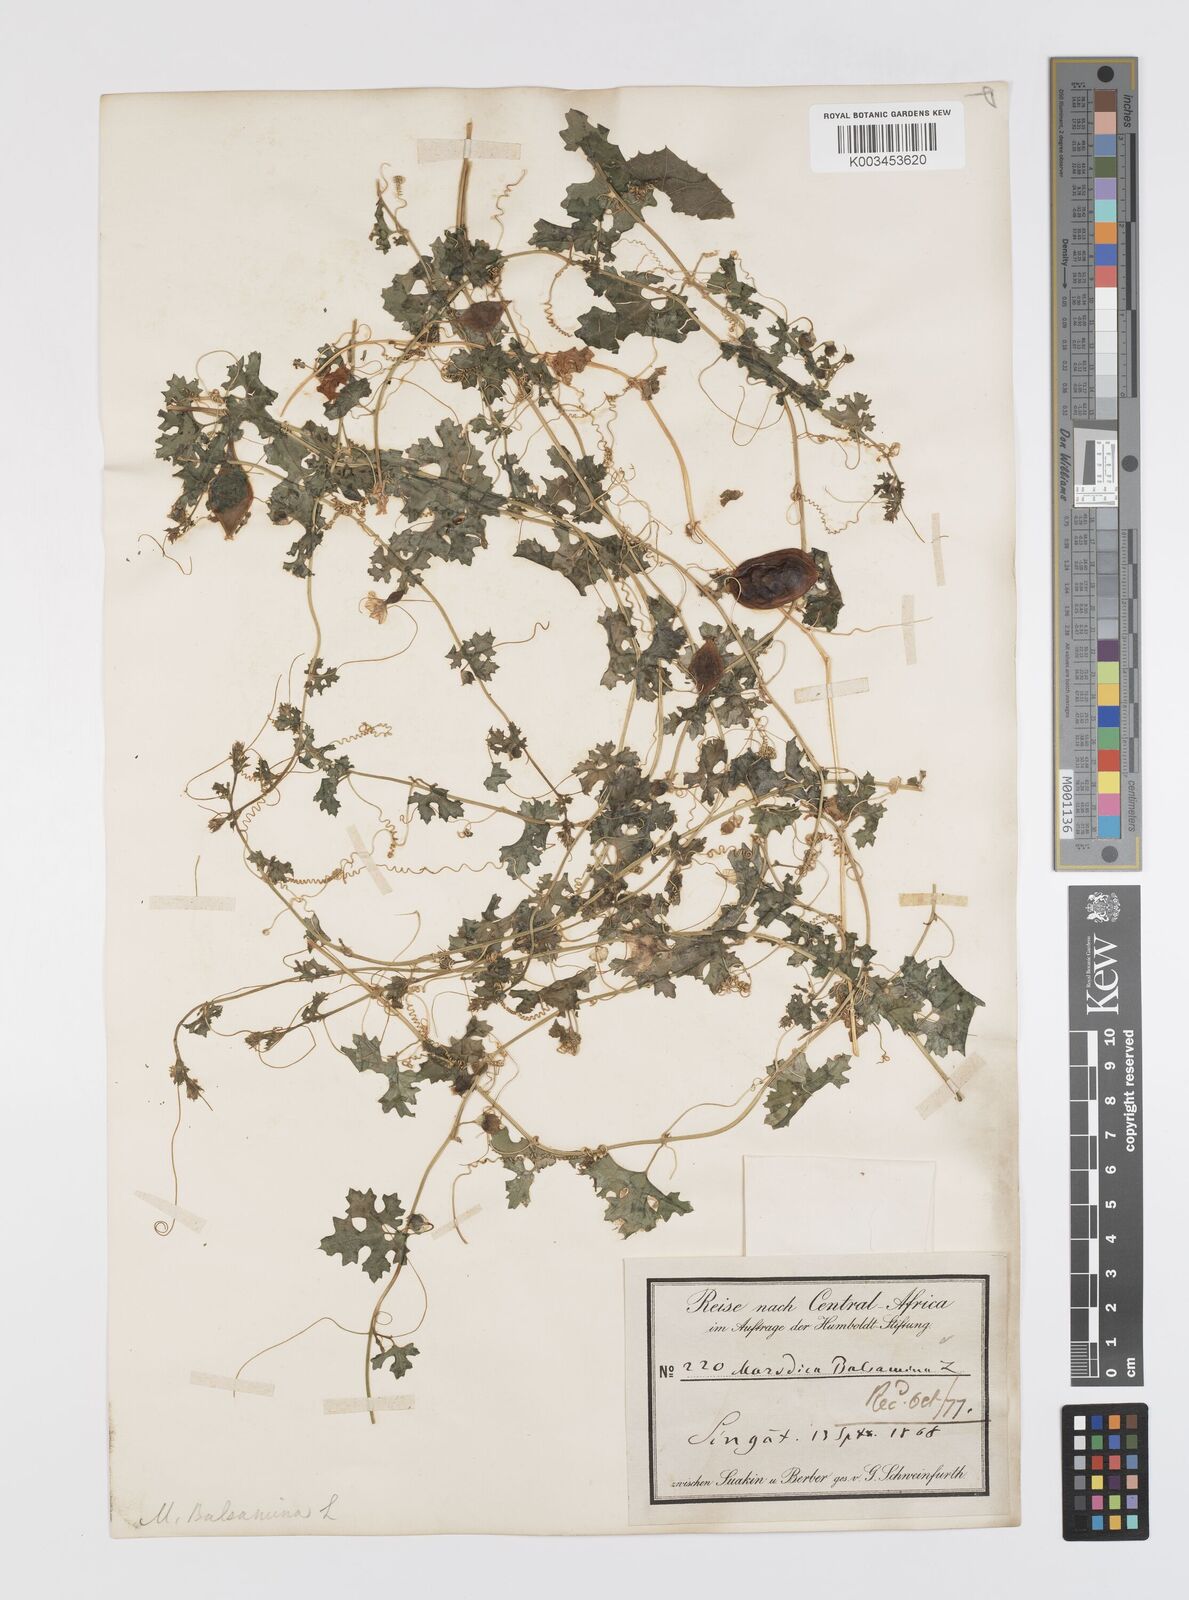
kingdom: Plantae
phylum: Tracheophyta
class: Magnoliopsida
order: Cucurbitales
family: Cucurbitaceae
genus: Momordica
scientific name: Momordica balsamina
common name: Southern balsampear
